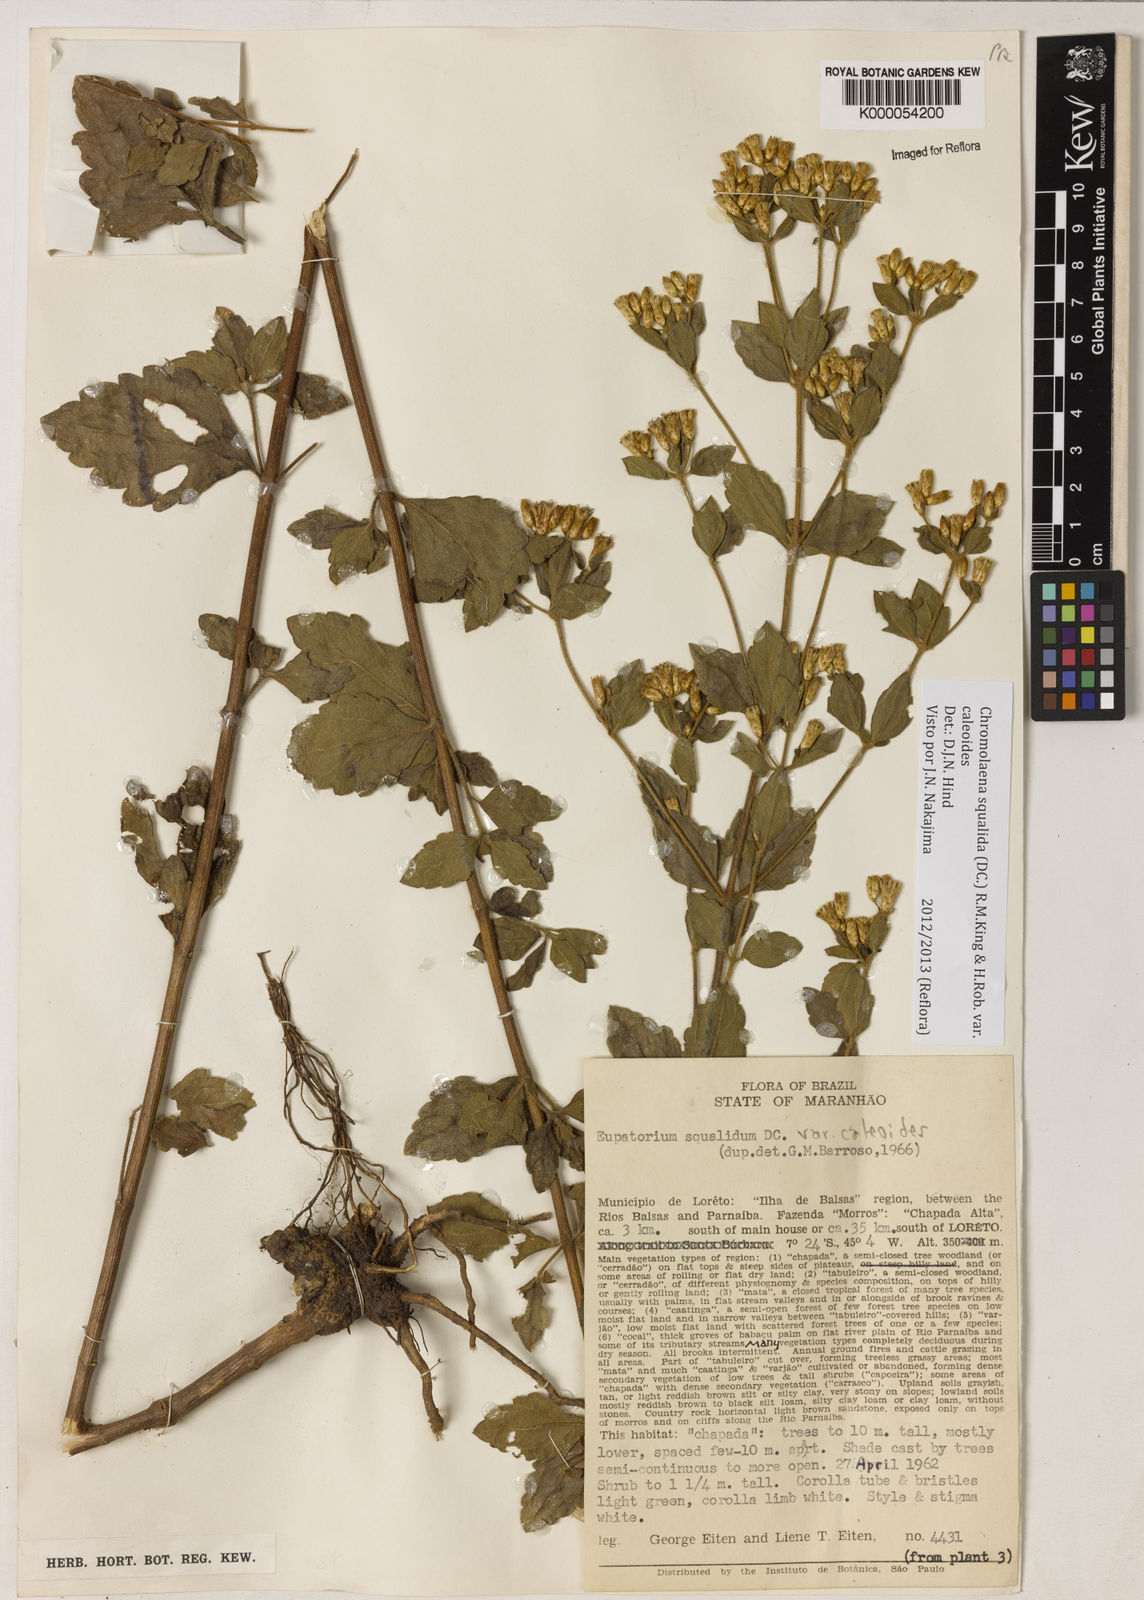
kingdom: Plantae
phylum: Tracheophyta
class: Magnoliopsida
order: Asterales
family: Asteraceae
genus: Chromolaena
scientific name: Chromolaena squalida
